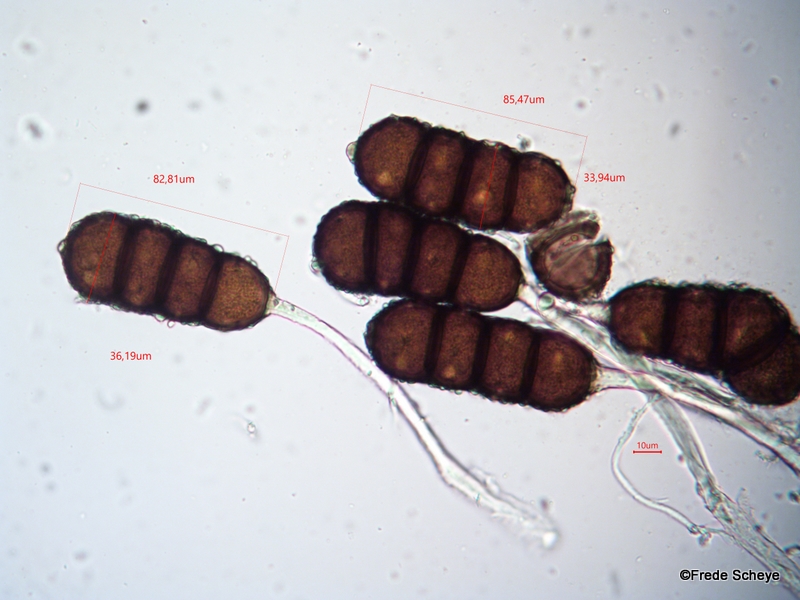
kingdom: Fungi
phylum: Basidiomycota
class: Pucciniomycetes
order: Pucciniales
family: Phragmidiaceae
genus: Phragmidium
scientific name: Phragmidium violaceum
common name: violet flercellerust
